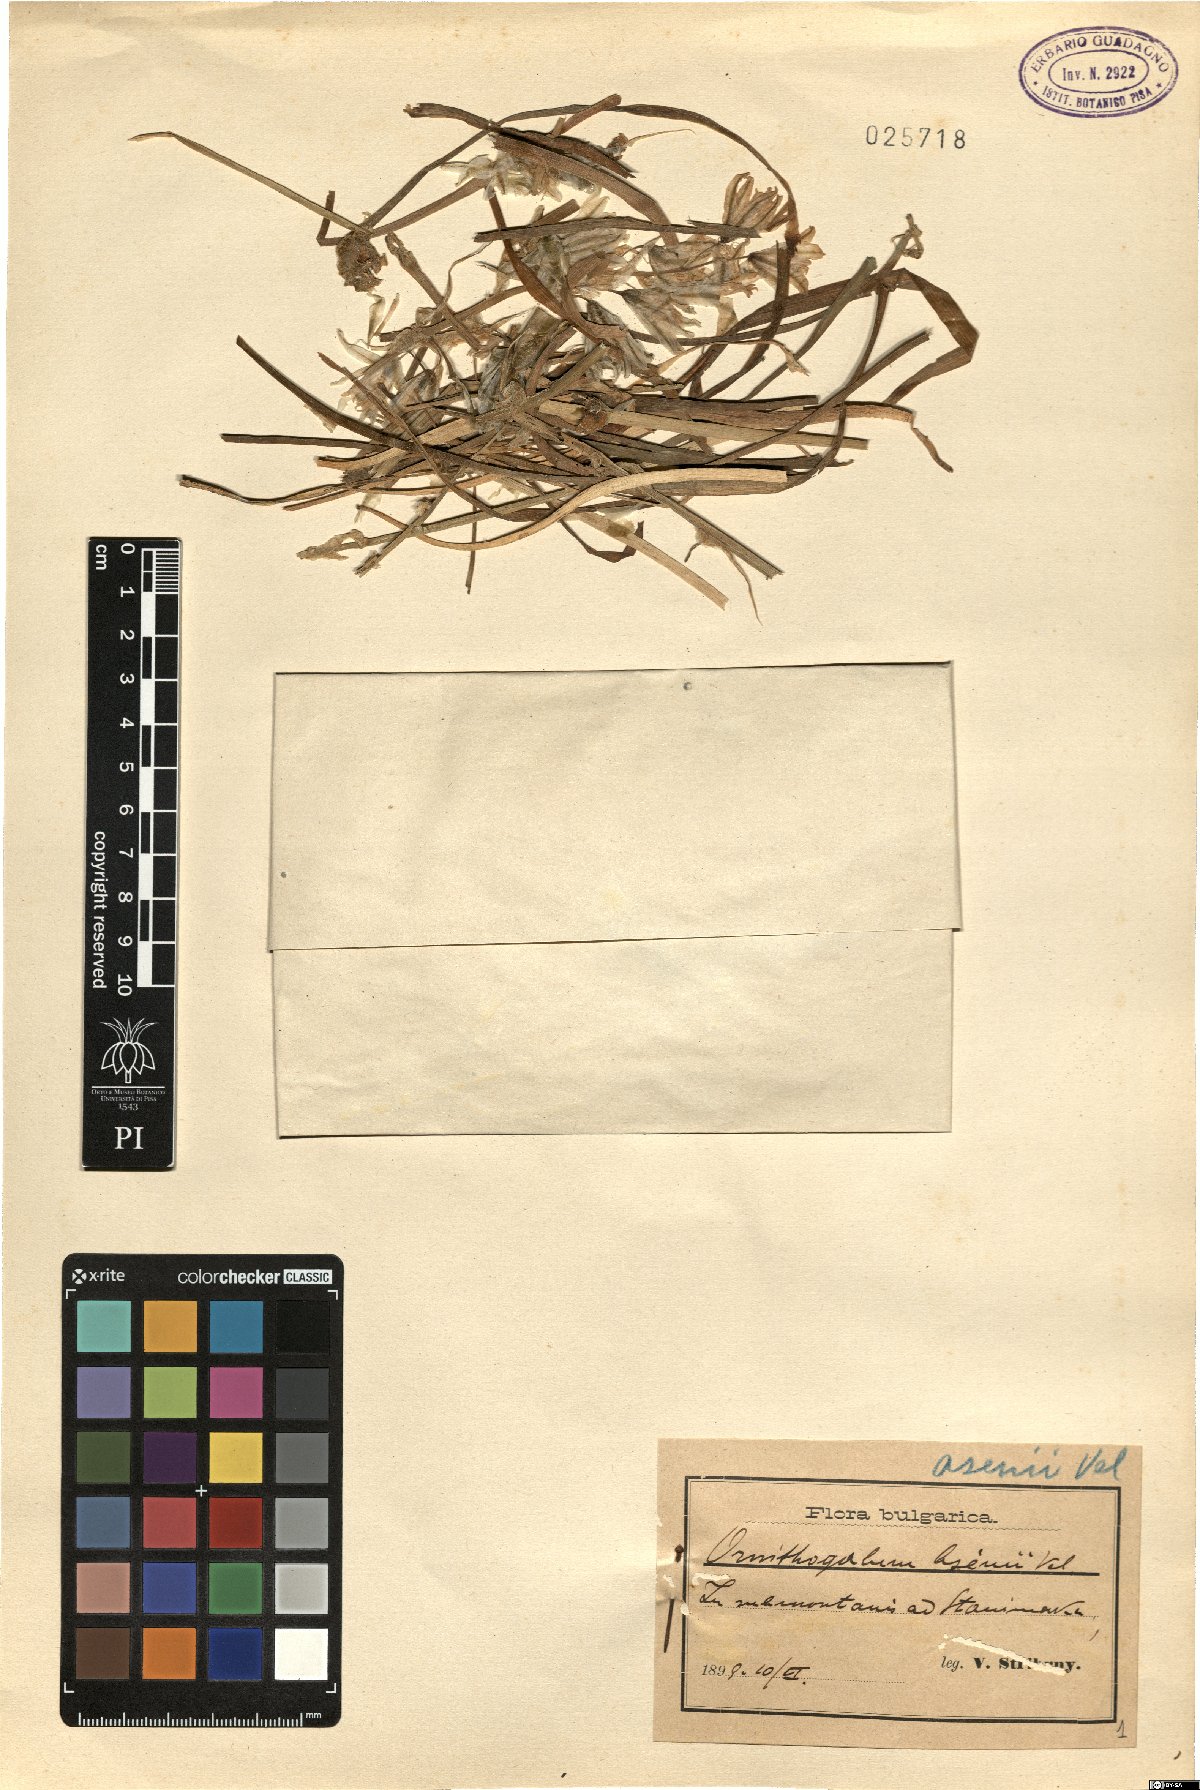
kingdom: Plantae
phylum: Tracheophyta
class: Liliopsida
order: Asparagales
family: Asparagaceae
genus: Ornithogalum
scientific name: Ornithogalum nutans
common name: Drooping star-of-bethlehem
